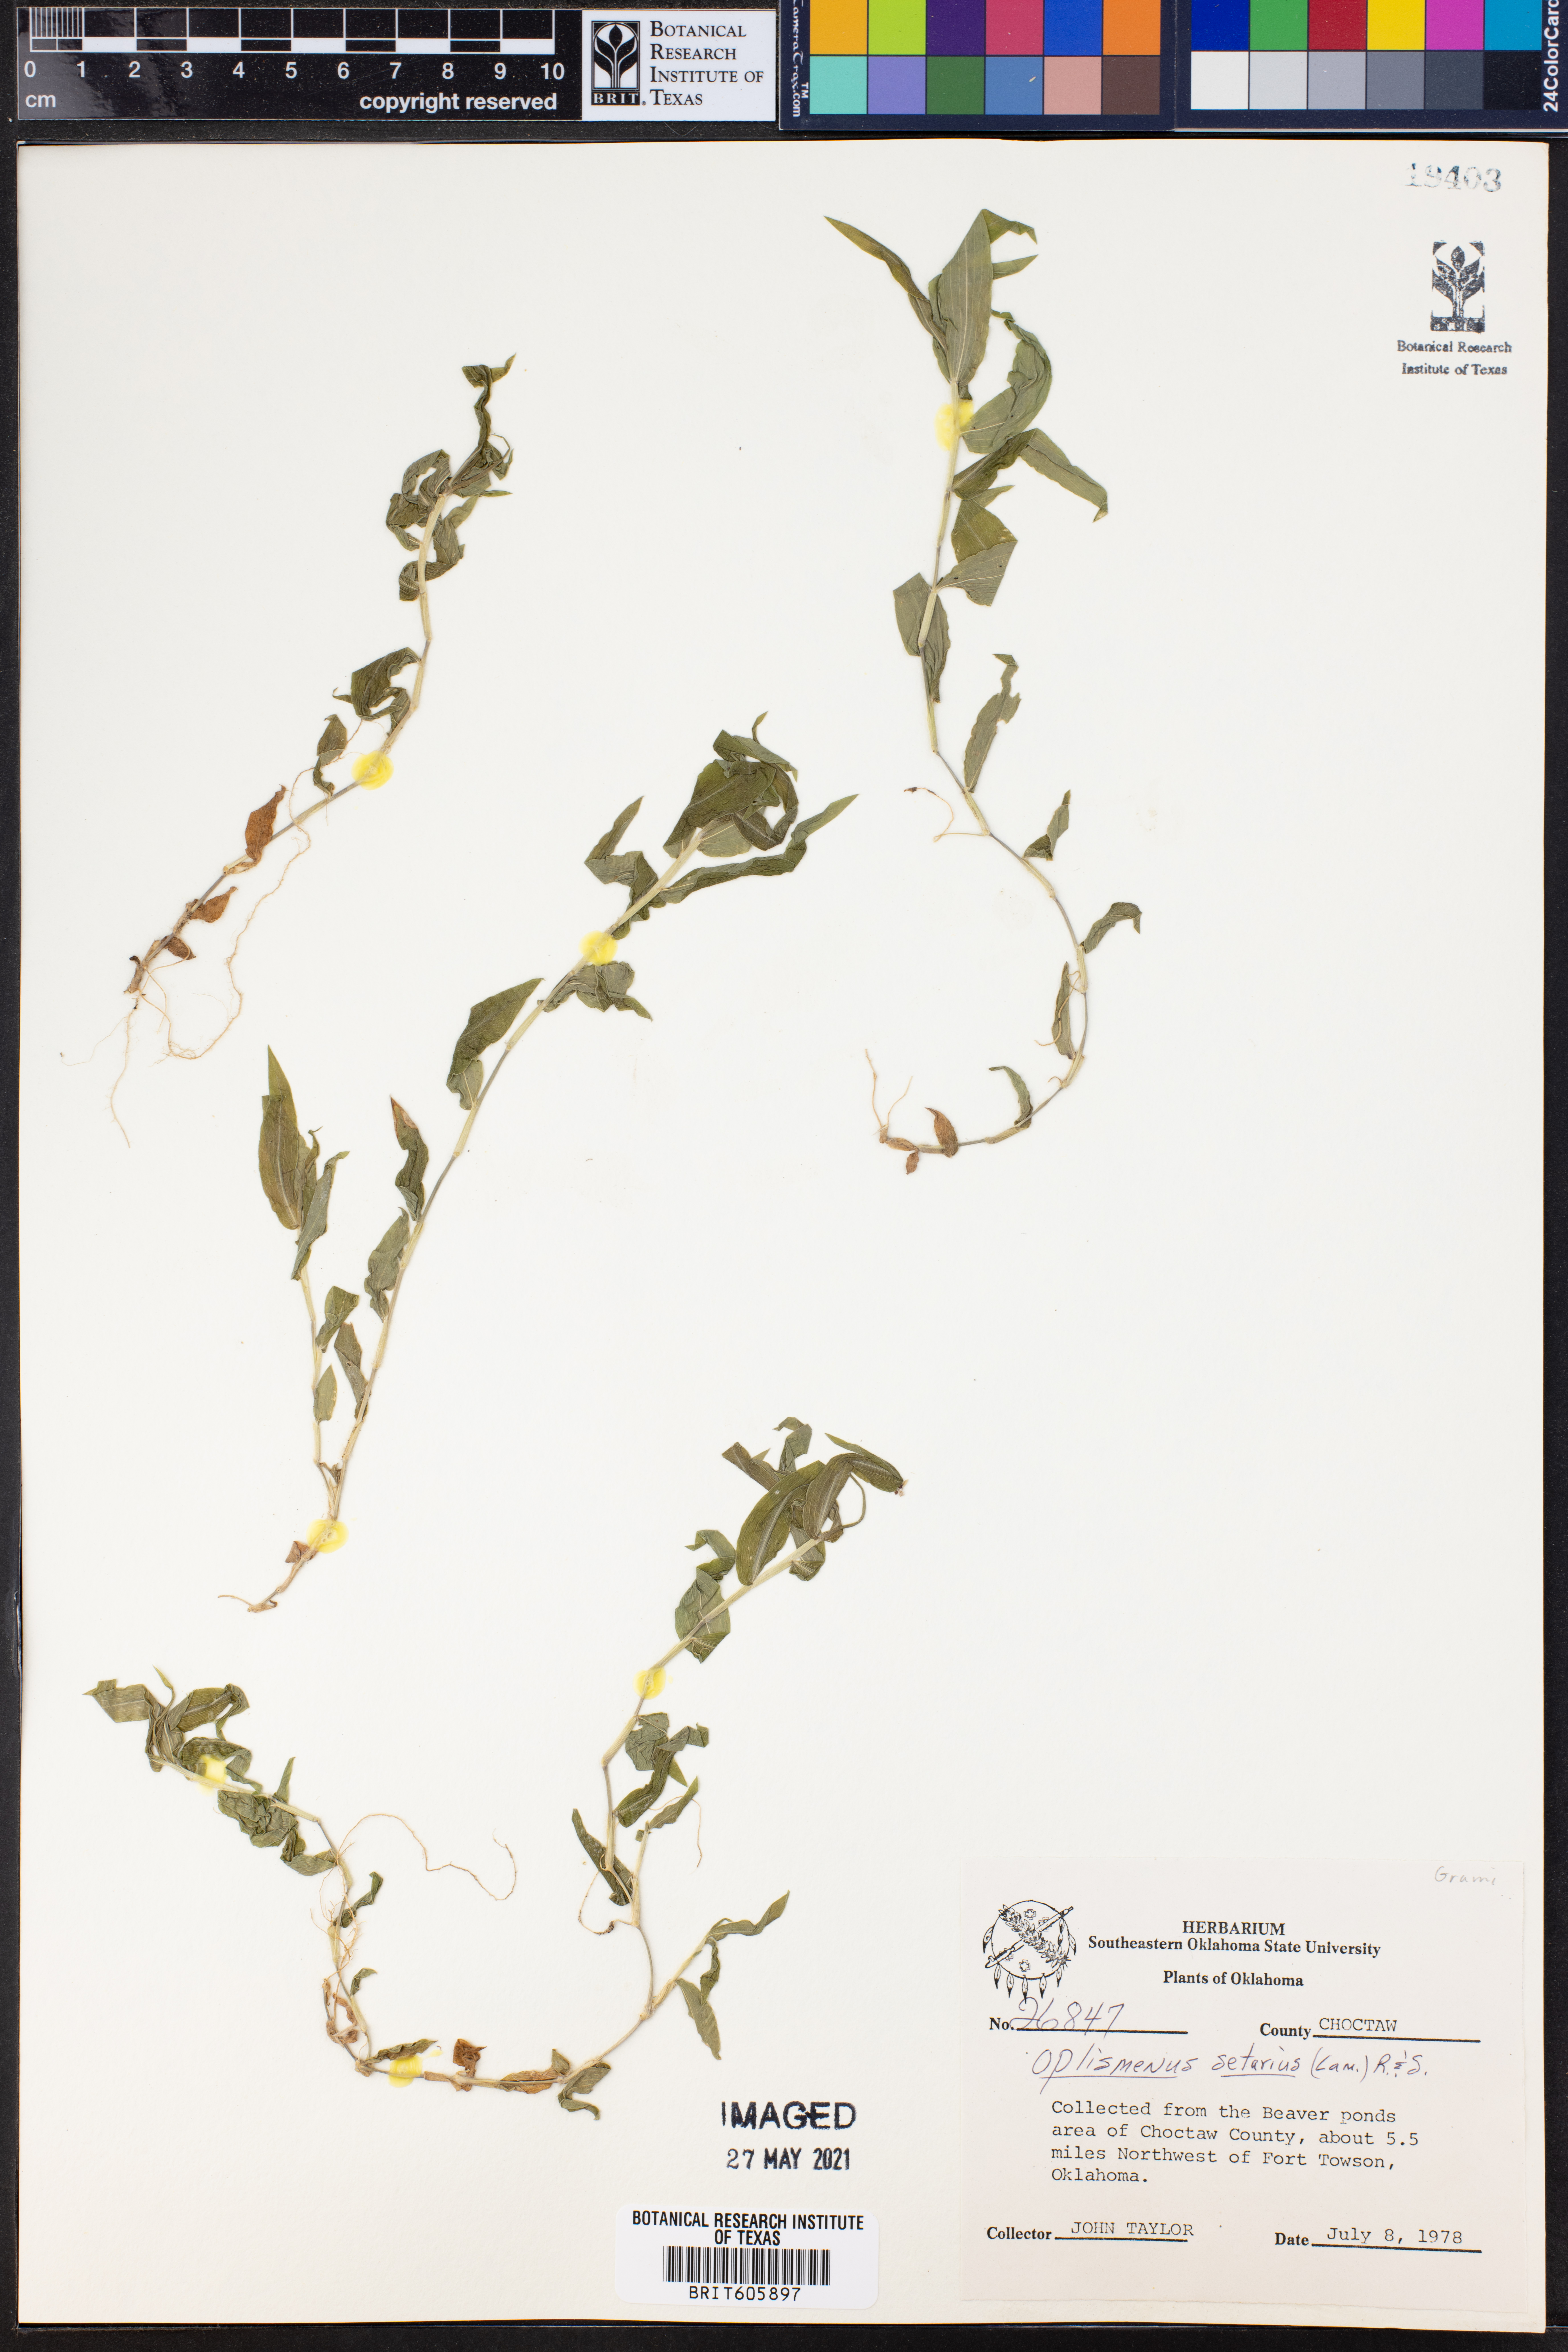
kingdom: Plantae
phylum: Tracheophyta
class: Liliopsida
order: Poales
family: Poaceae
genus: Oplismenus
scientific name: Oplismenus compositus
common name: Running mountain grass
